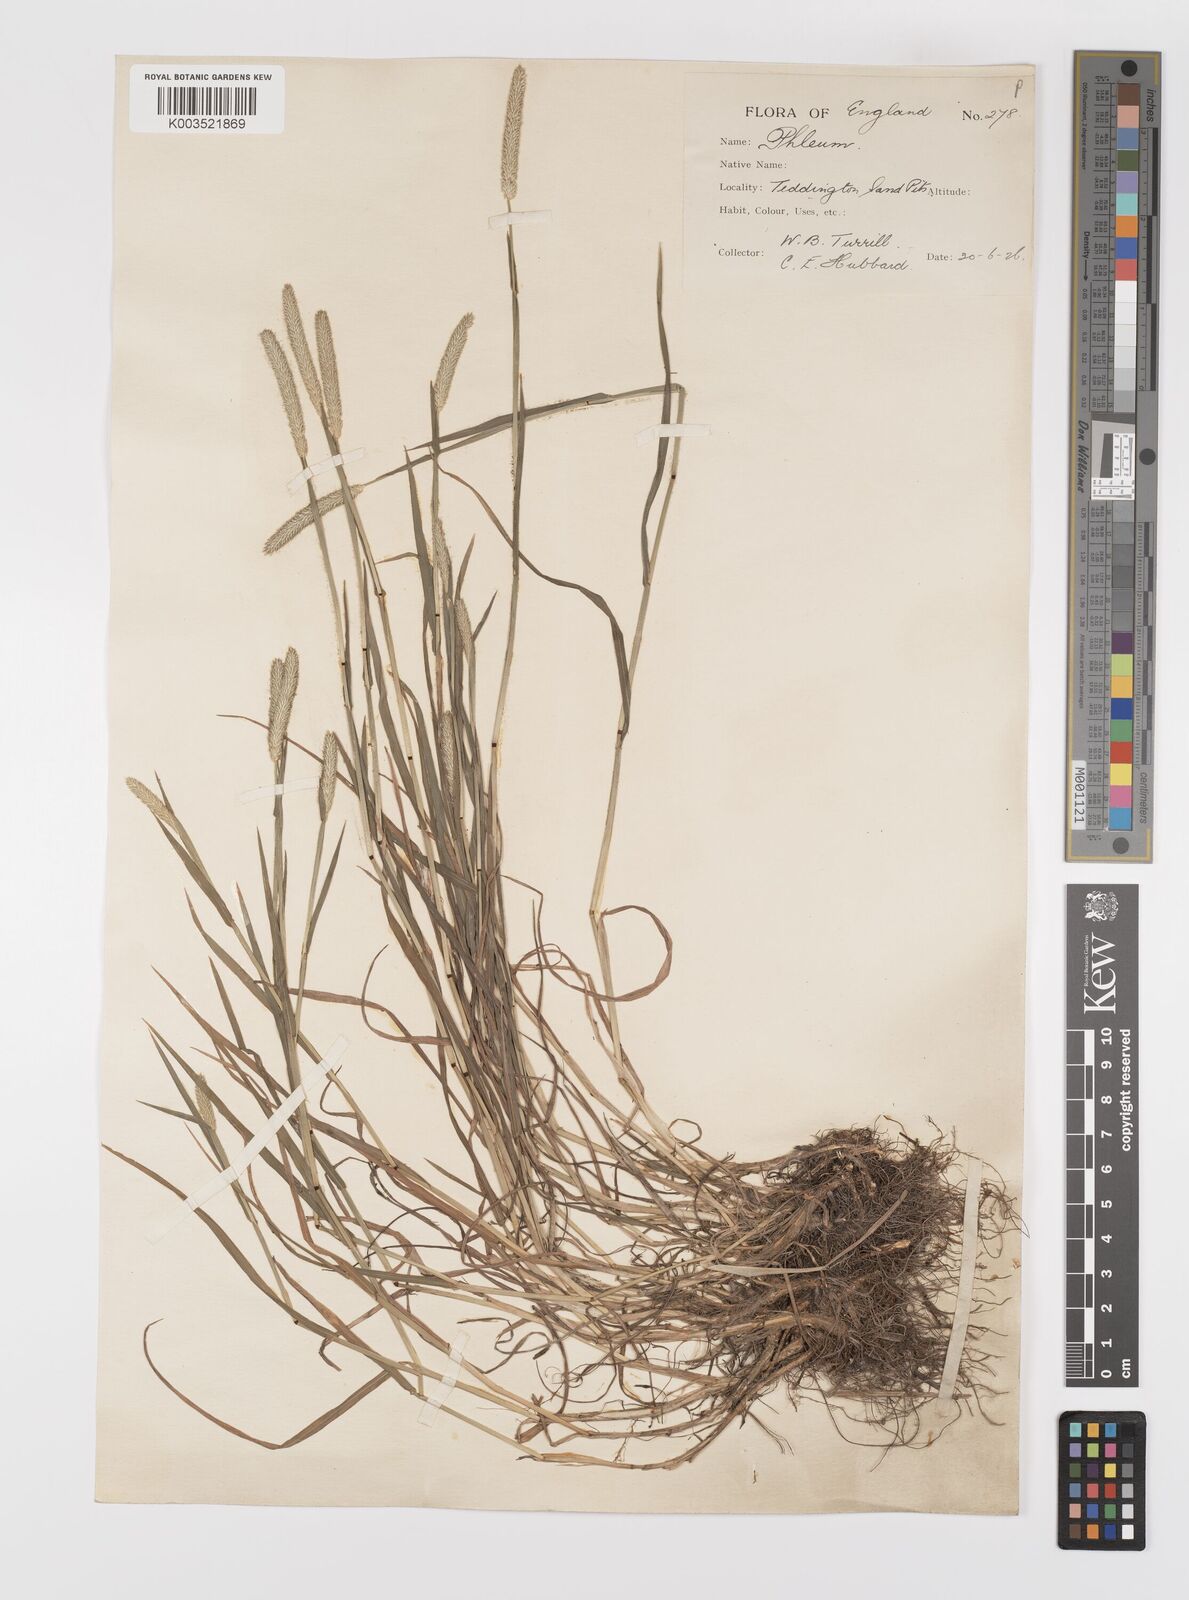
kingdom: Plantae
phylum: Tracheophyta
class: Liliopsida
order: Poales
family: Poaceae
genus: Phleum
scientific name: Phleum bertolonii
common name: Smaller cat's-tail
